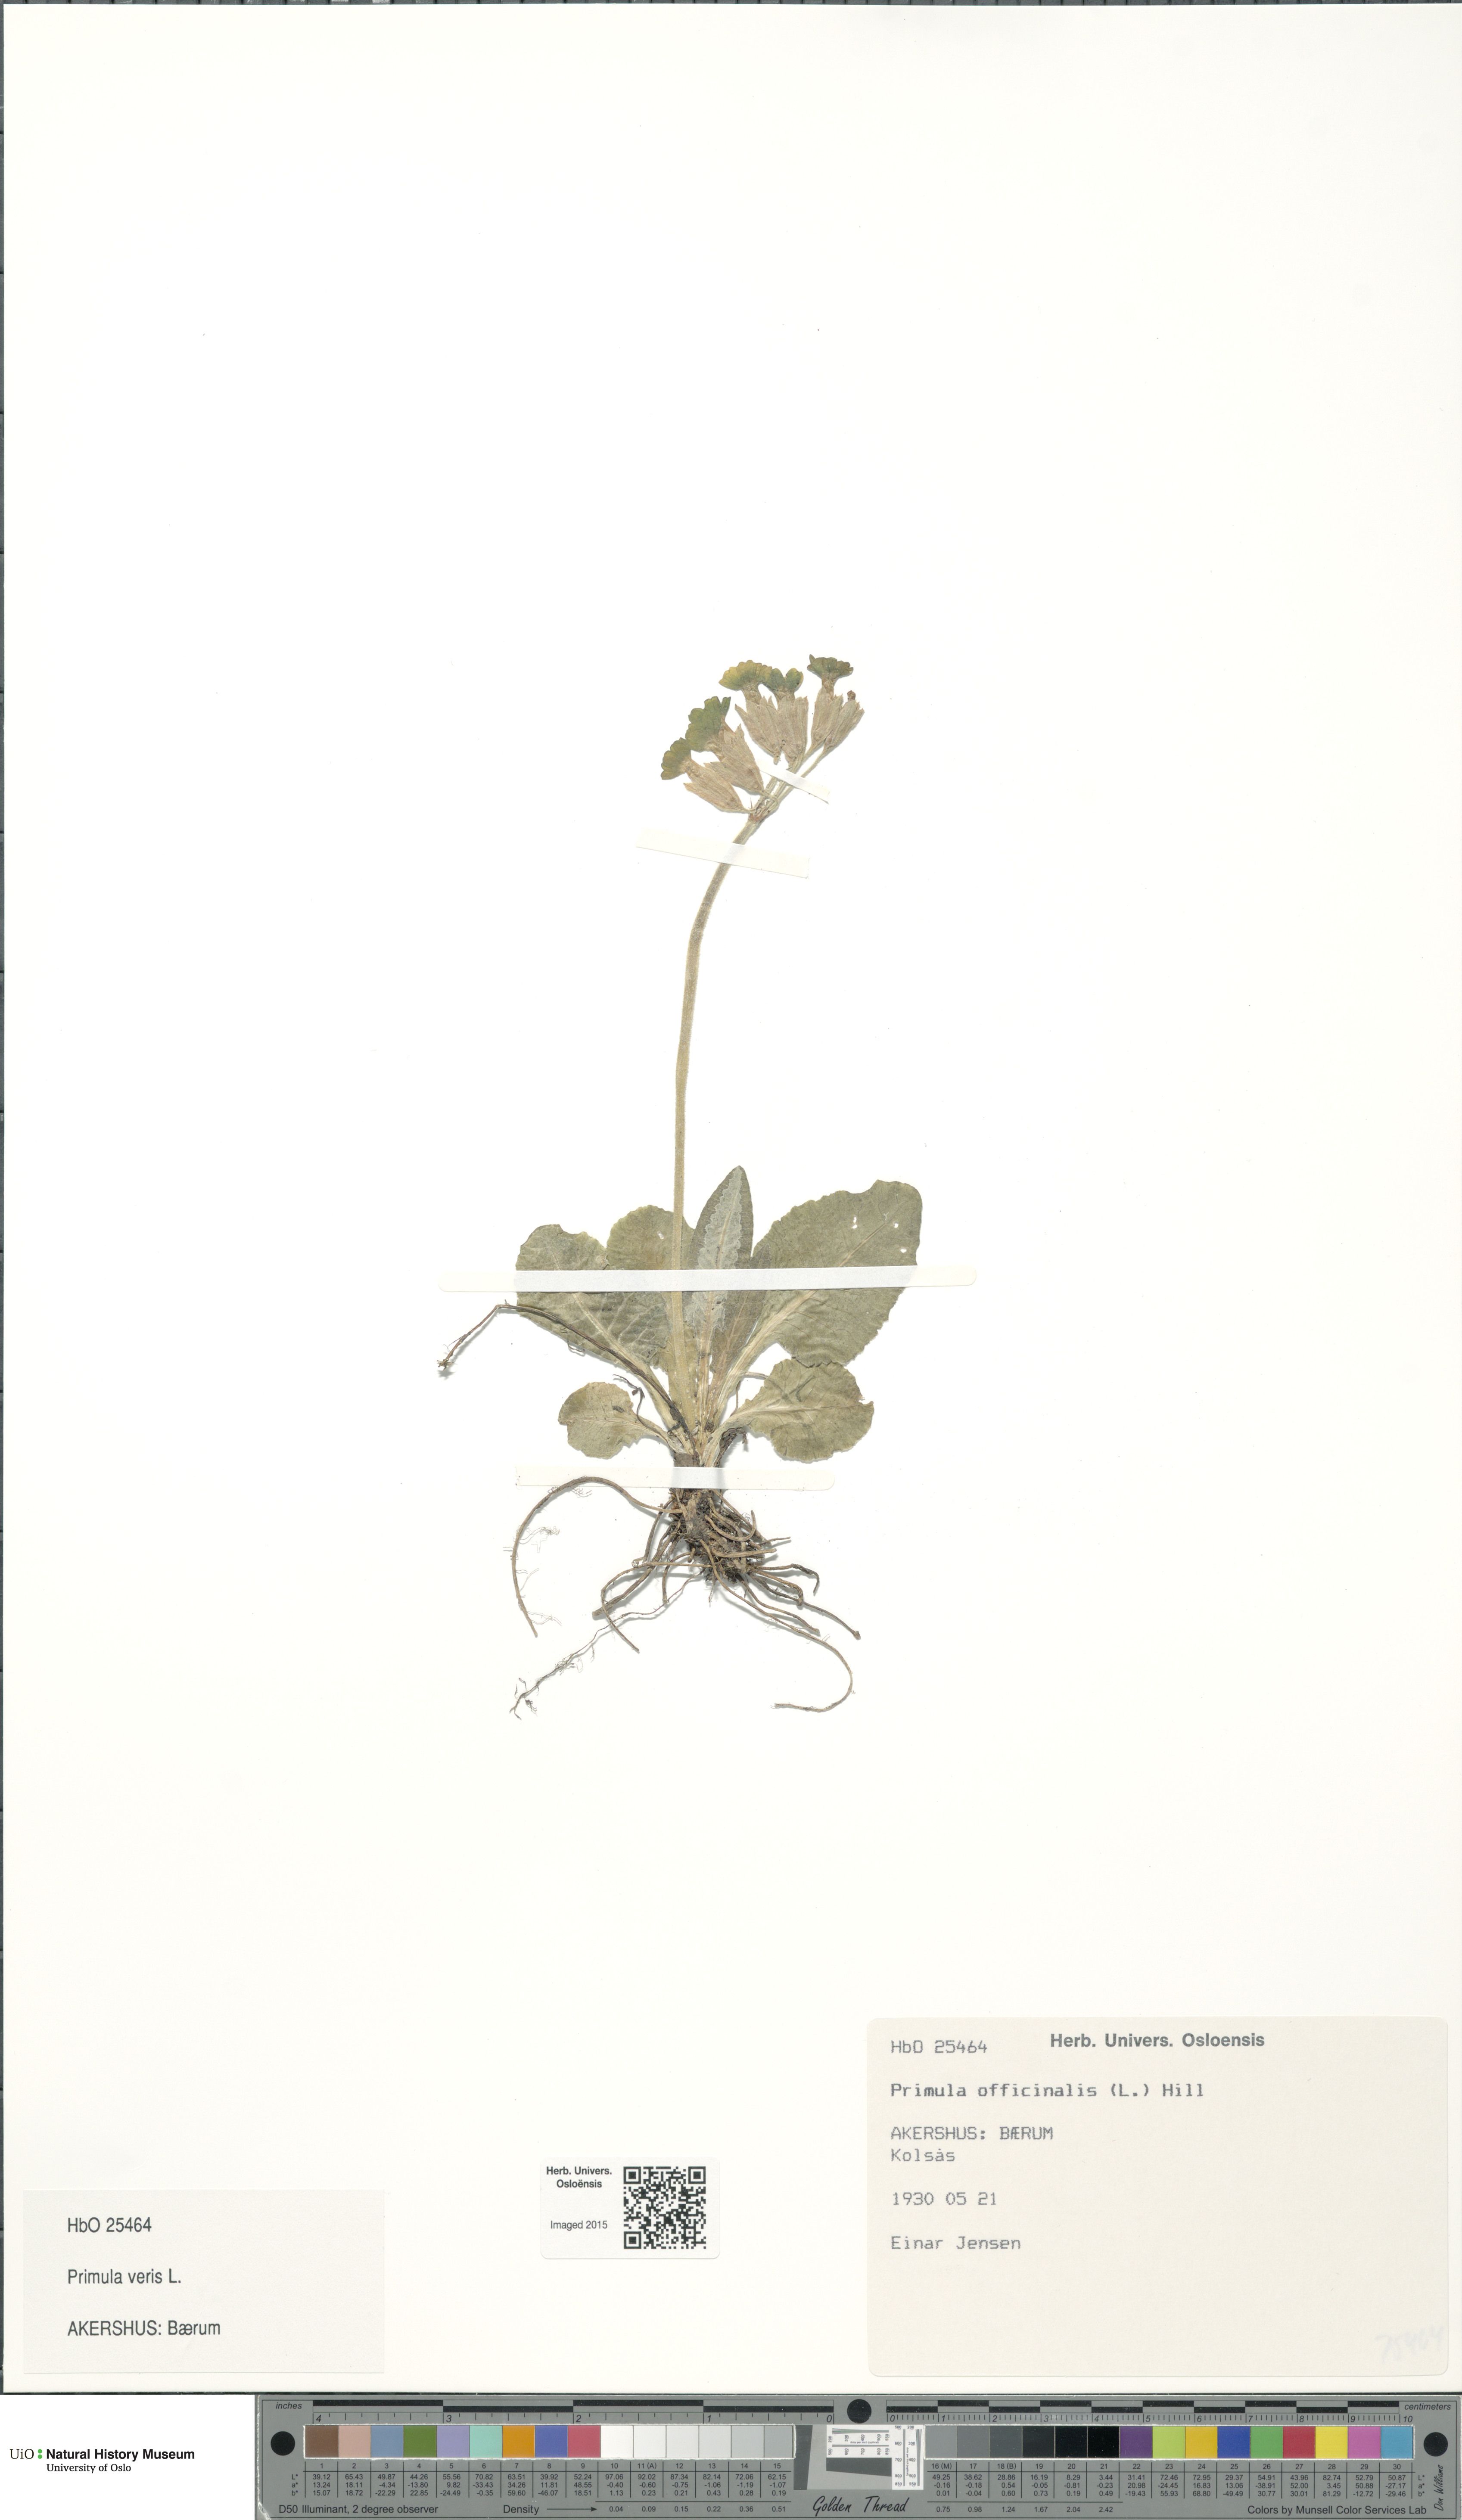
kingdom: Plantae
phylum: Tracheophyta
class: Magnoliopsida
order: Ericales
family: Primulaceae
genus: Primula
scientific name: Primula veris
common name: Cowslip
